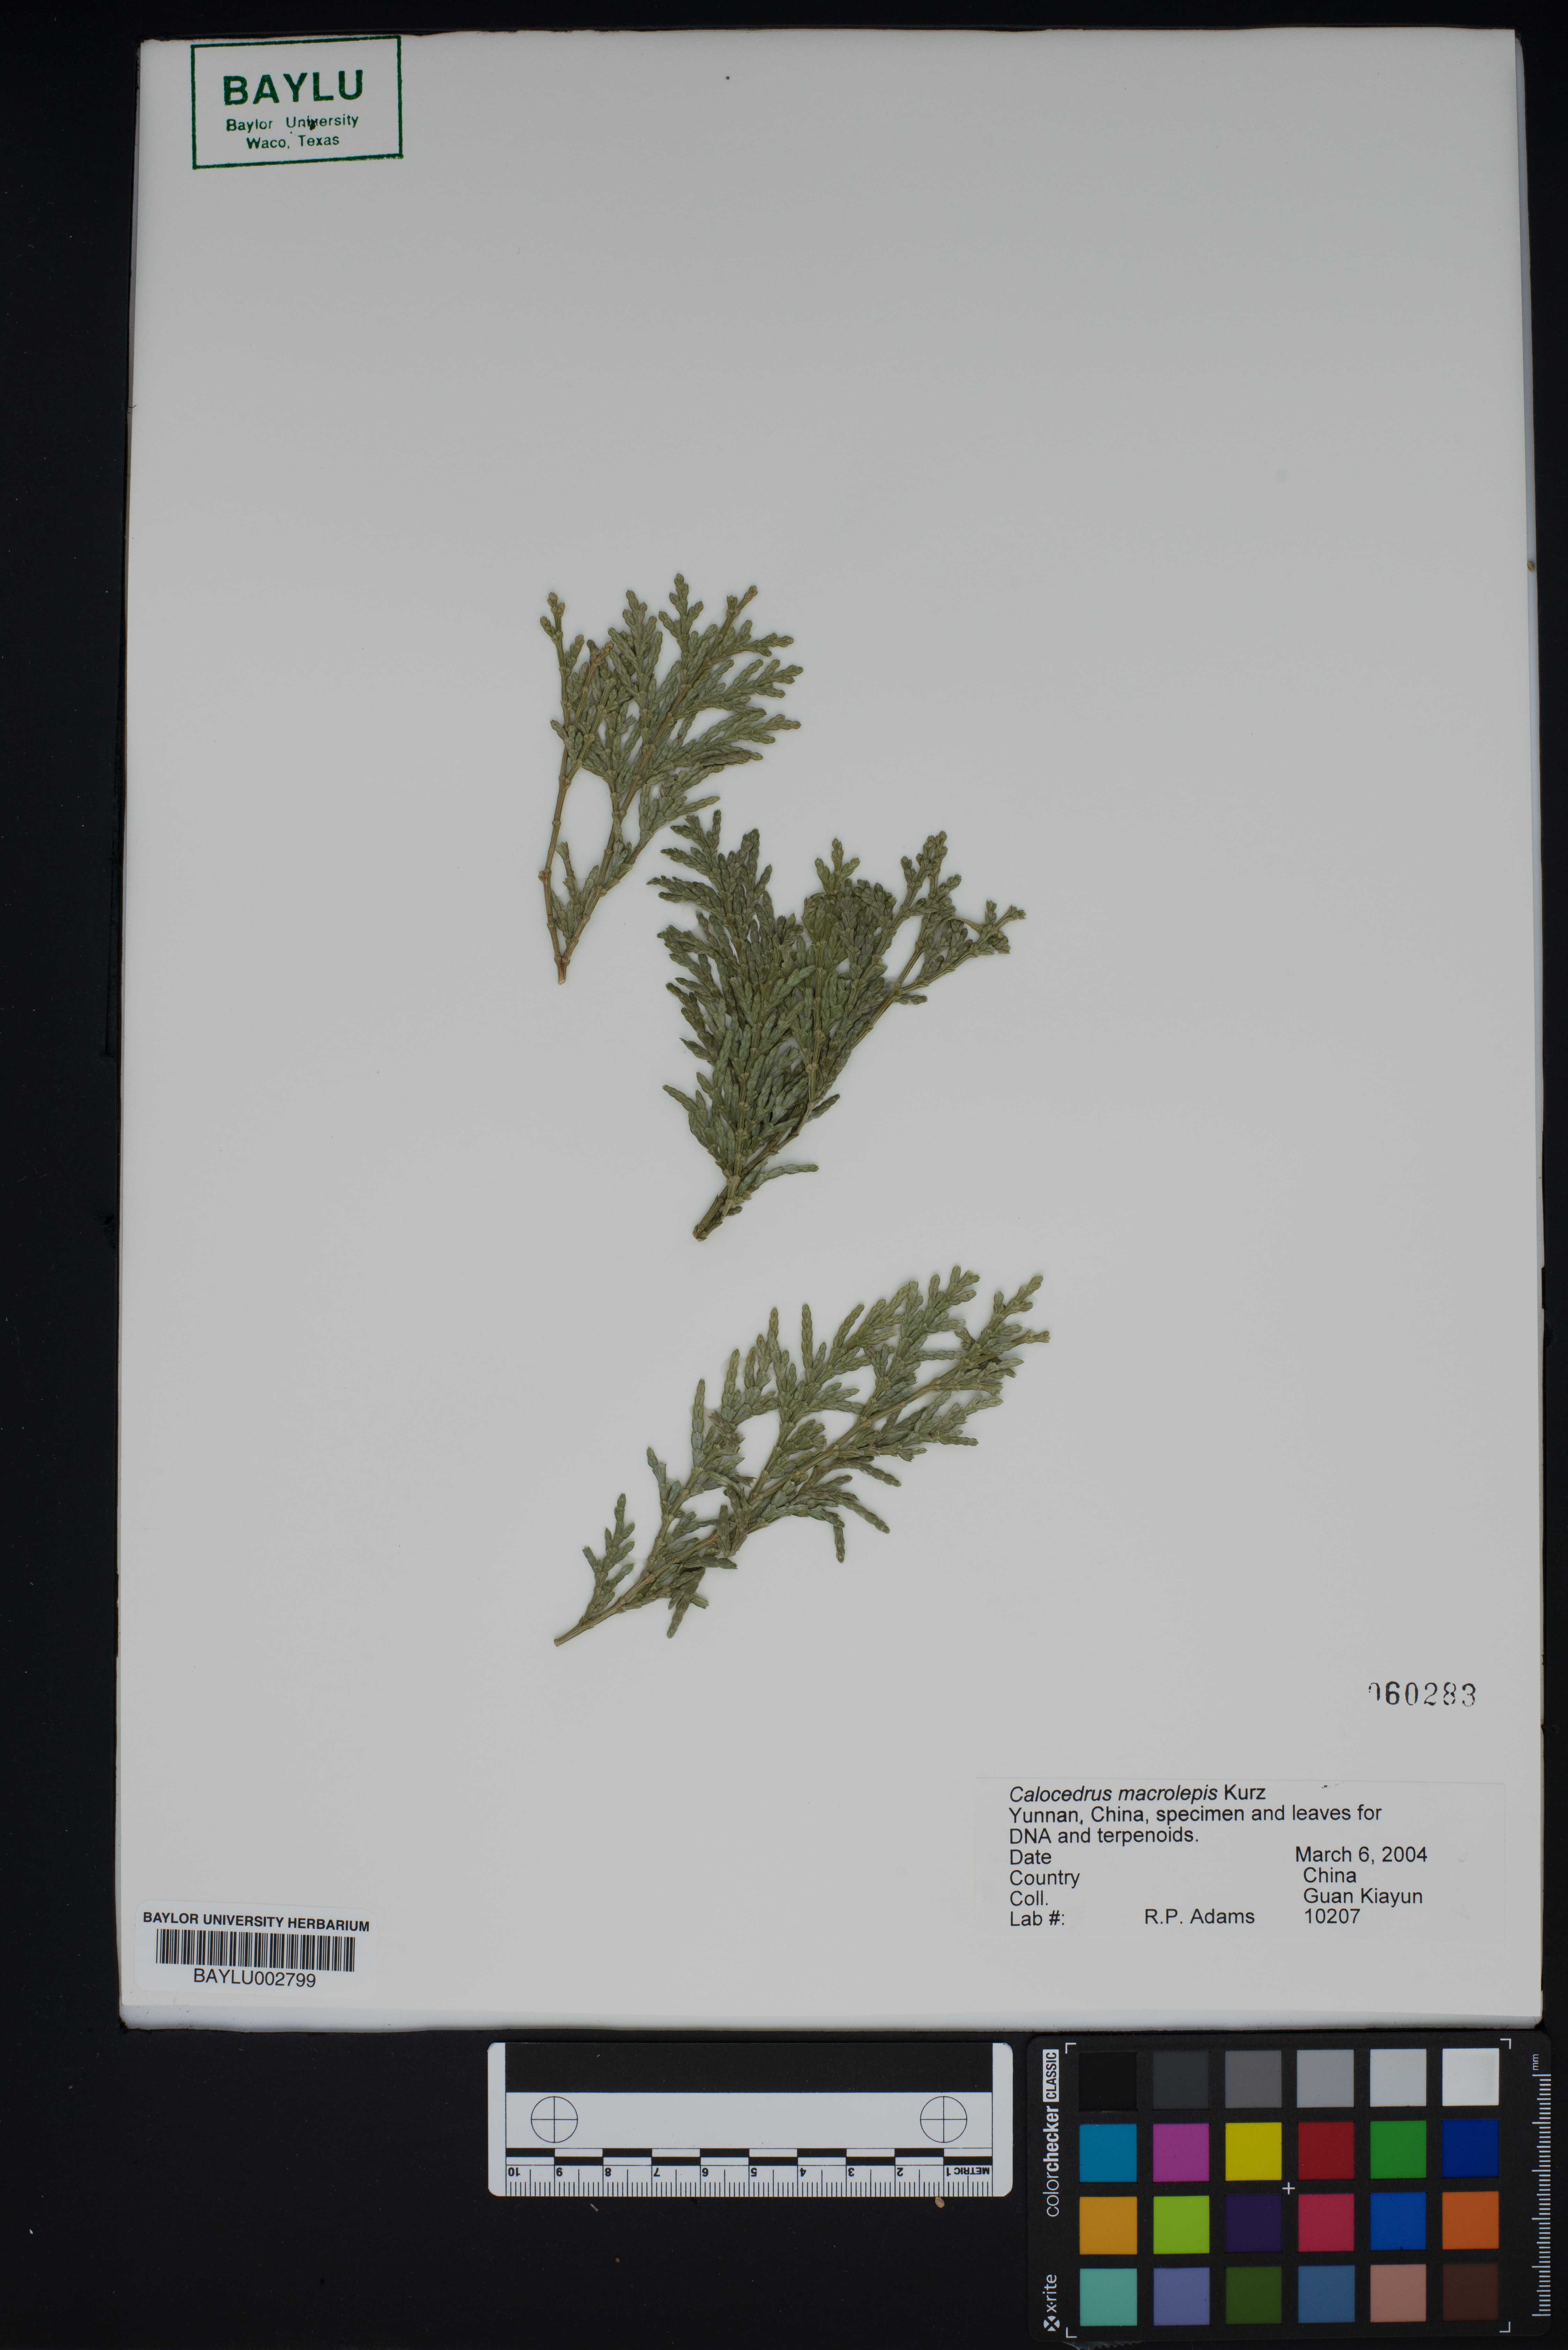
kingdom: Plantae
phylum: Tracheophyta
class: Pinopsida
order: Pinales
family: Cupressaceae
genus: Calocedrus
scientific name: Calocedrus macrolepis
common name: Chinese incense-cedar
